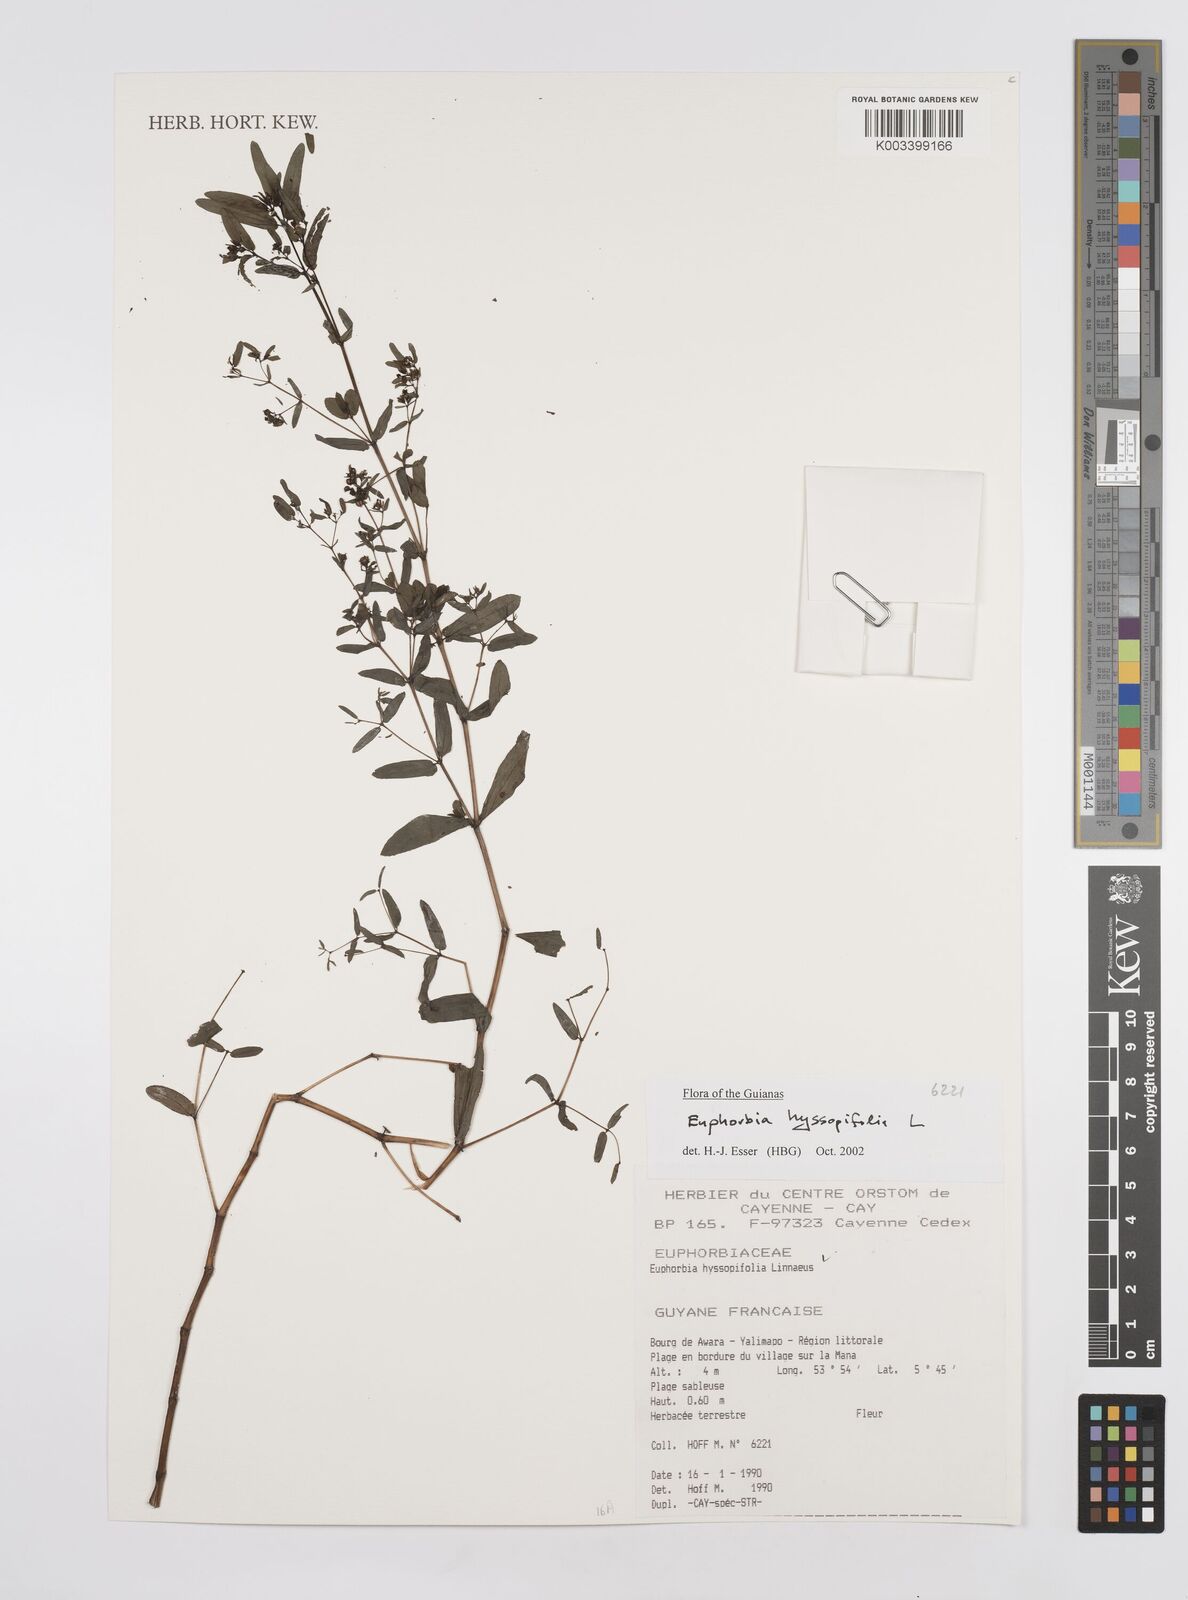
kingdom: Plantae
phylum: Tracheophyta
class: Magnoliopsida
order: Malpighiales
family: Euphorbiaceae
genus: Euphorbia
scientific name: Euphorbia hyssopifolia
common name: Hyssopleaf sandmat
